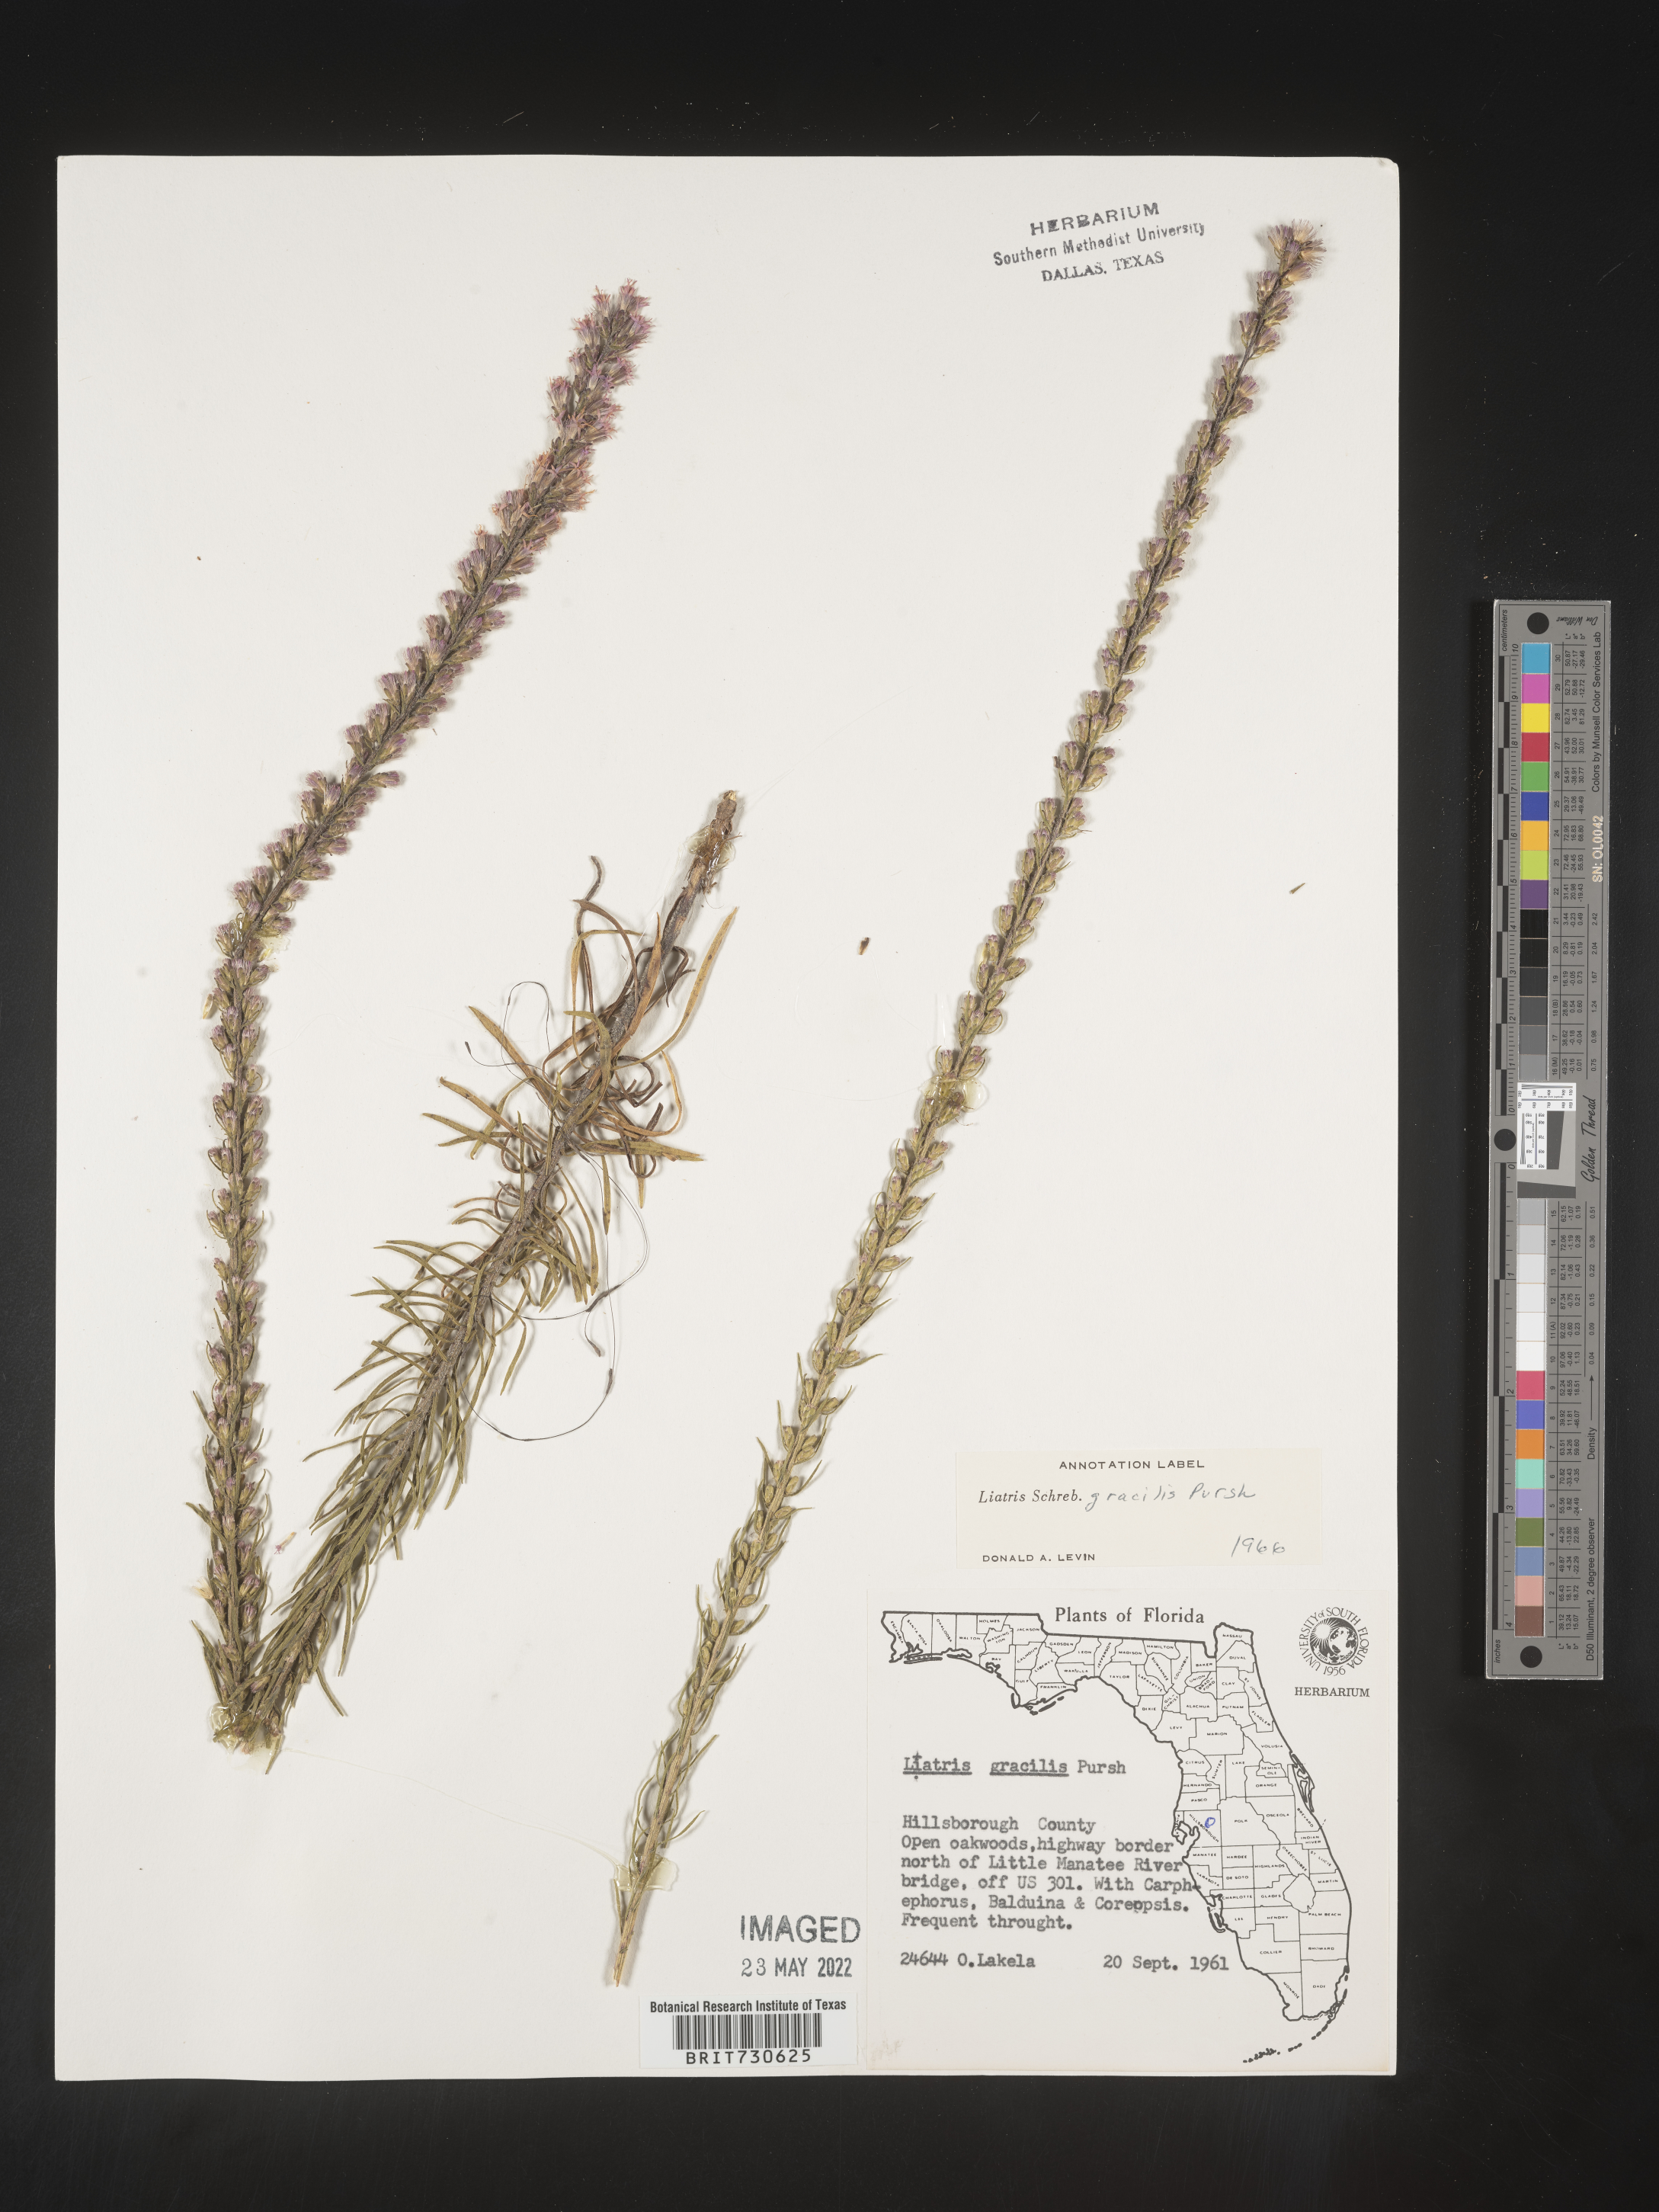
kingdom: Plantae
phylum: Tracheophyta
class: Magnoliopsida
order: Asterales
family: Asteraceae
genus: Liatris
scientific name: Liatris gracilis
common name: Slender gayfeather
